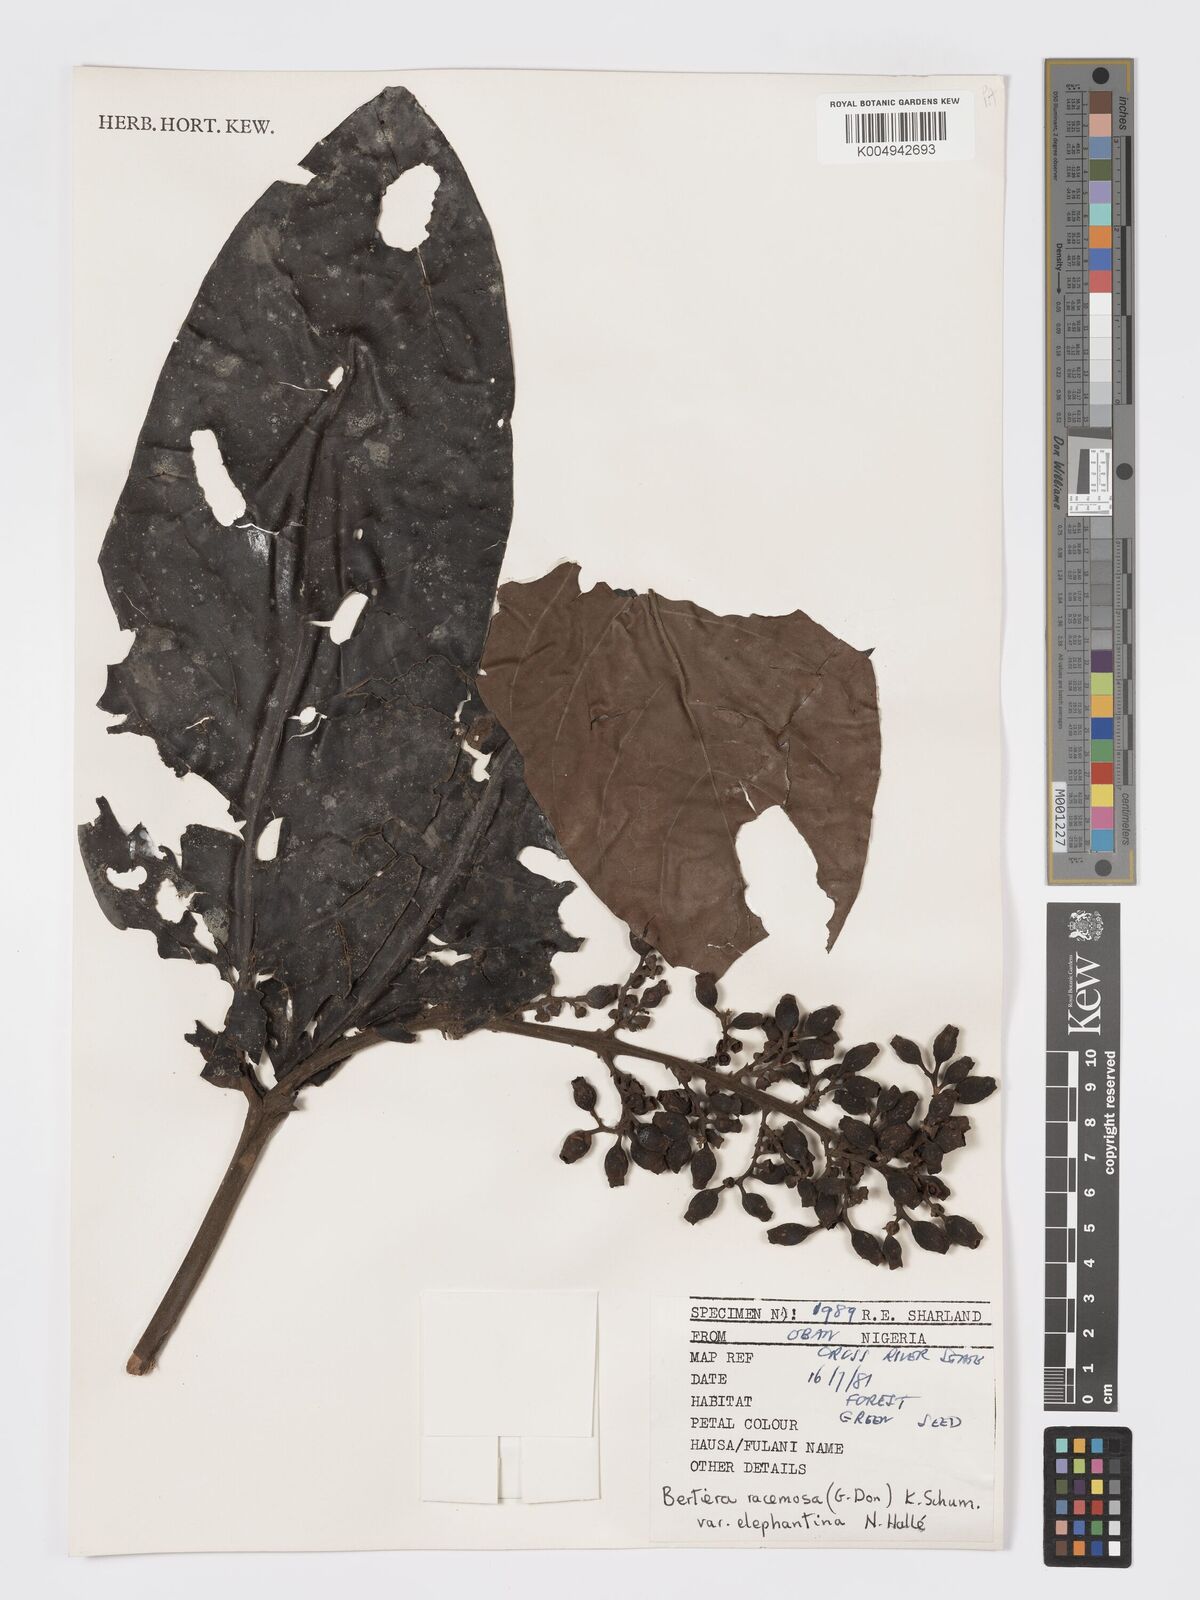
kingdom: Plantae
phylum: Tracheophyta
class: Magnoliopsida
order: Gentianales
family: Rubiaceae
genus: Bertiera
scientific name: Bertiera racemosa
